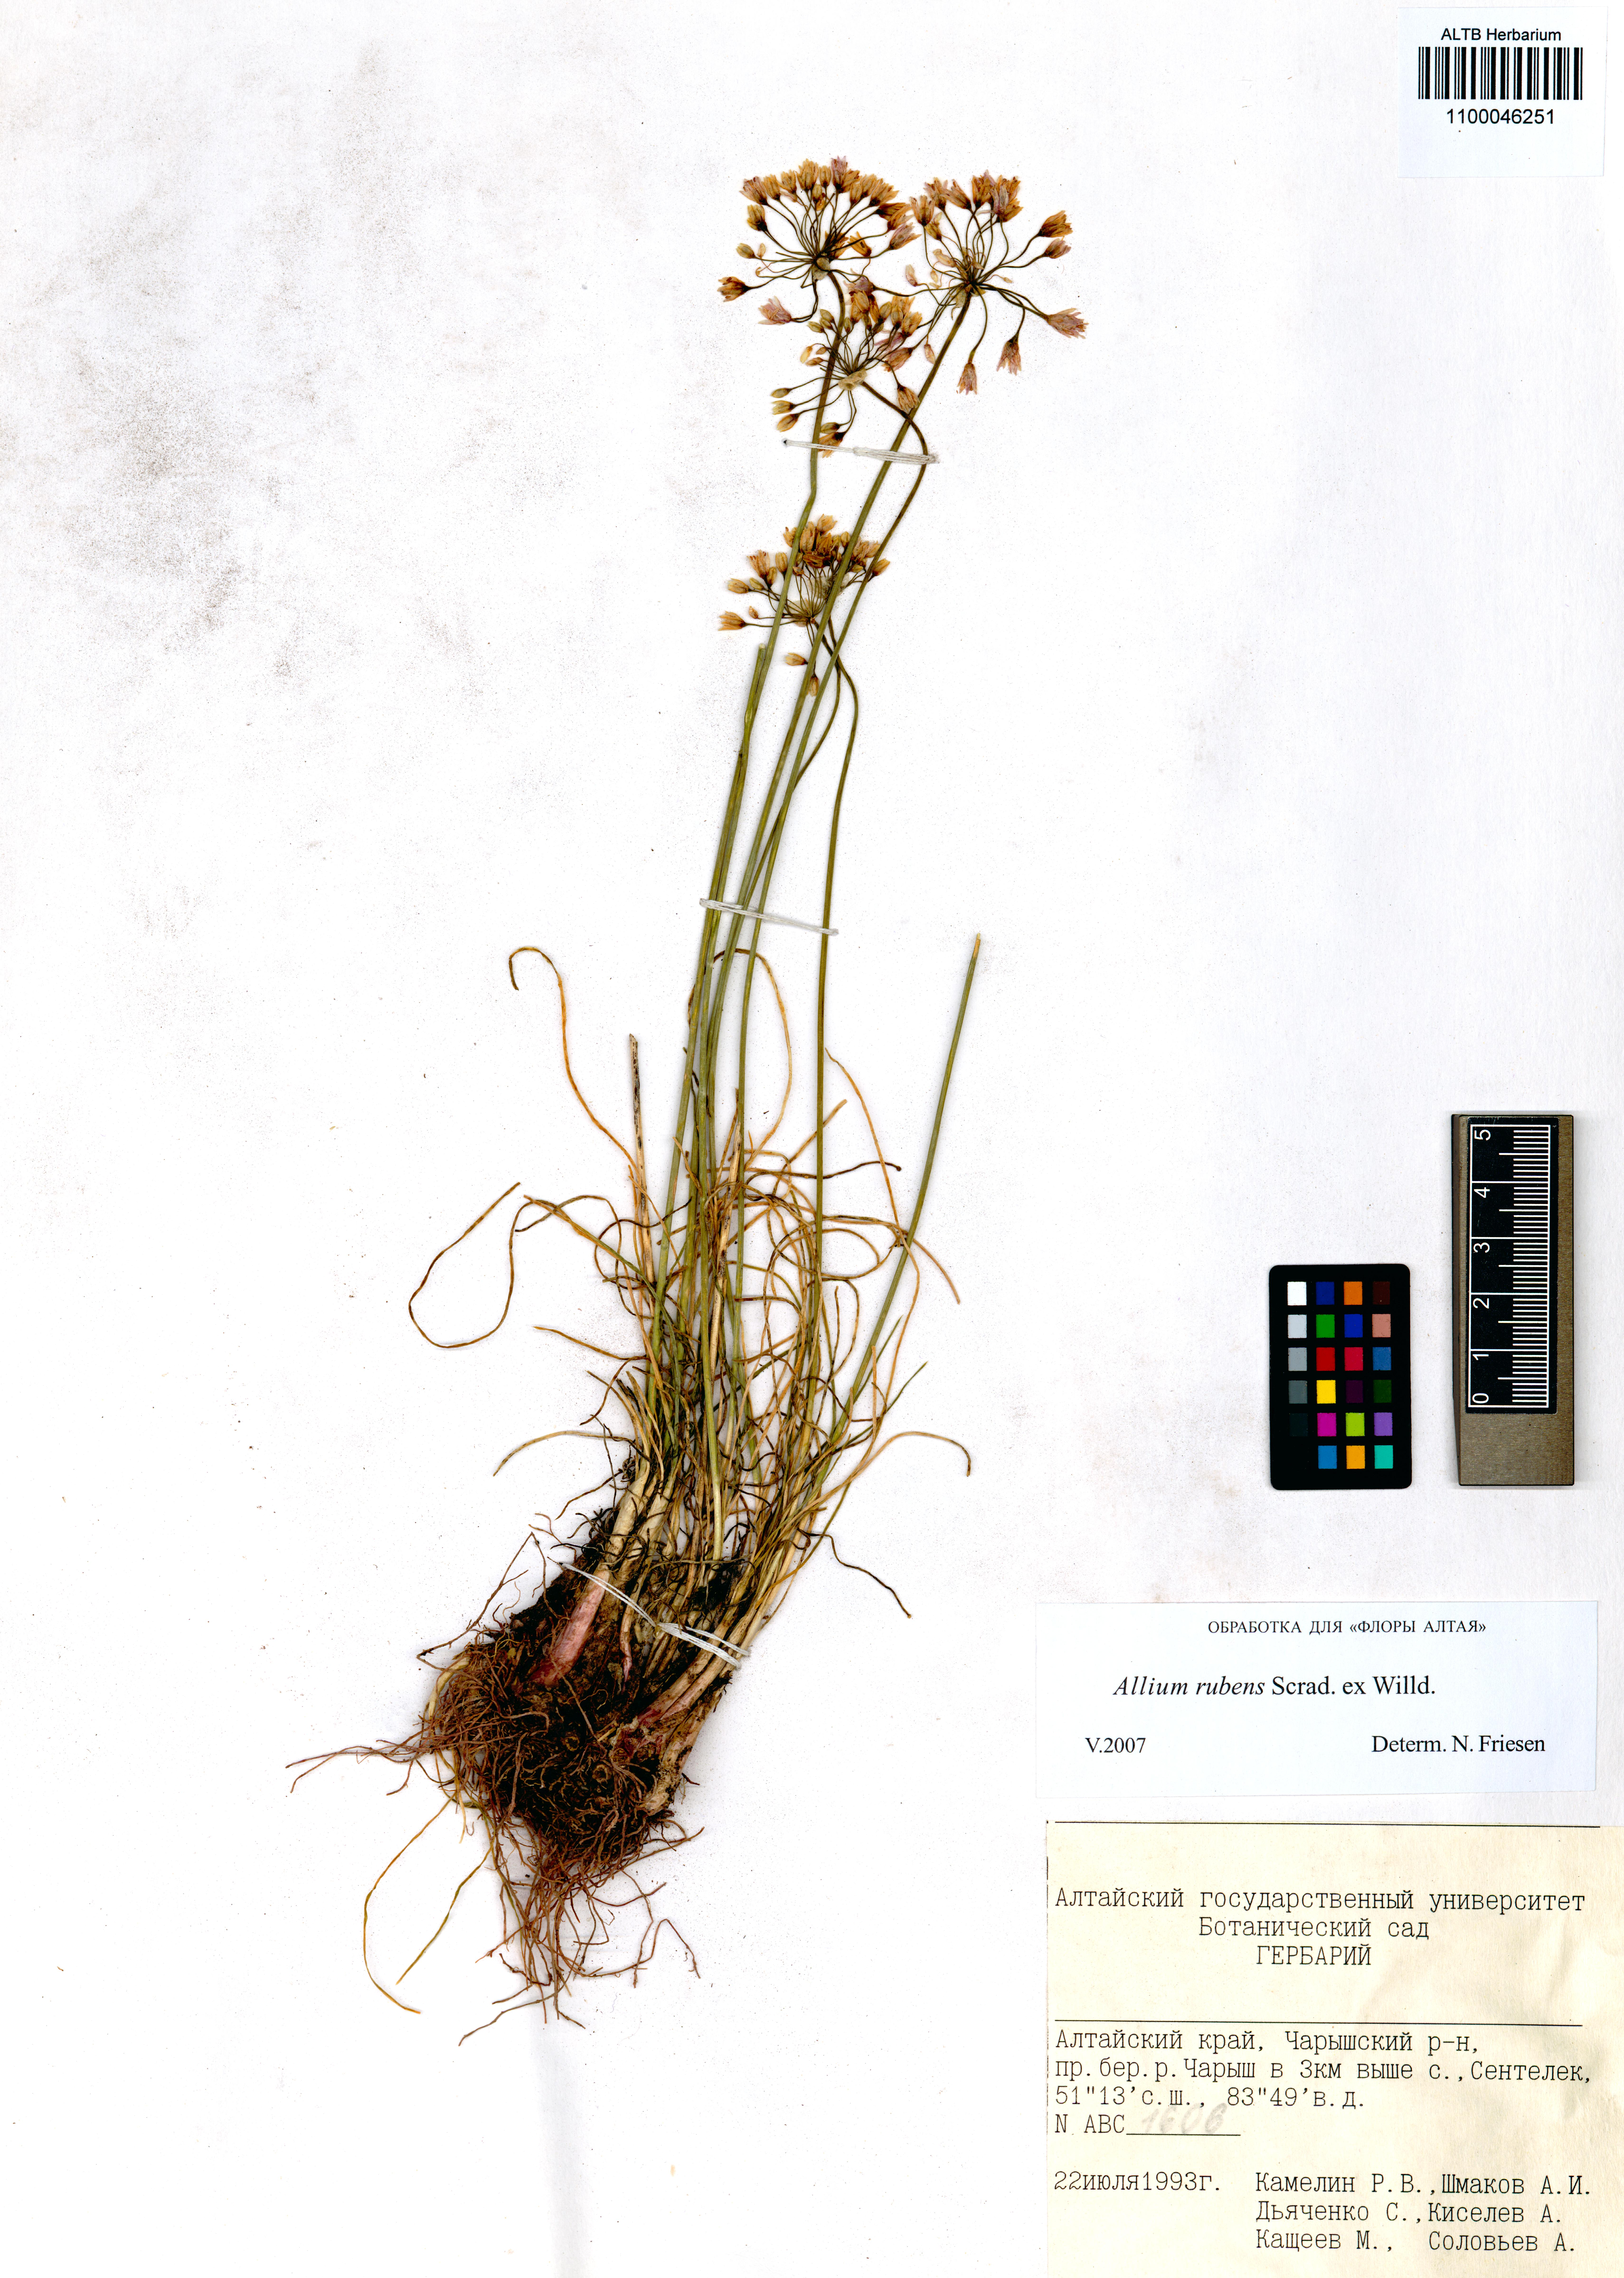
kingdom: Plantae
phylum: Tracheophyta
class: Liliopsida
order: Asparagales
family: Amaryllidaceae
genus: Allium
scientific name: Allium rubens
